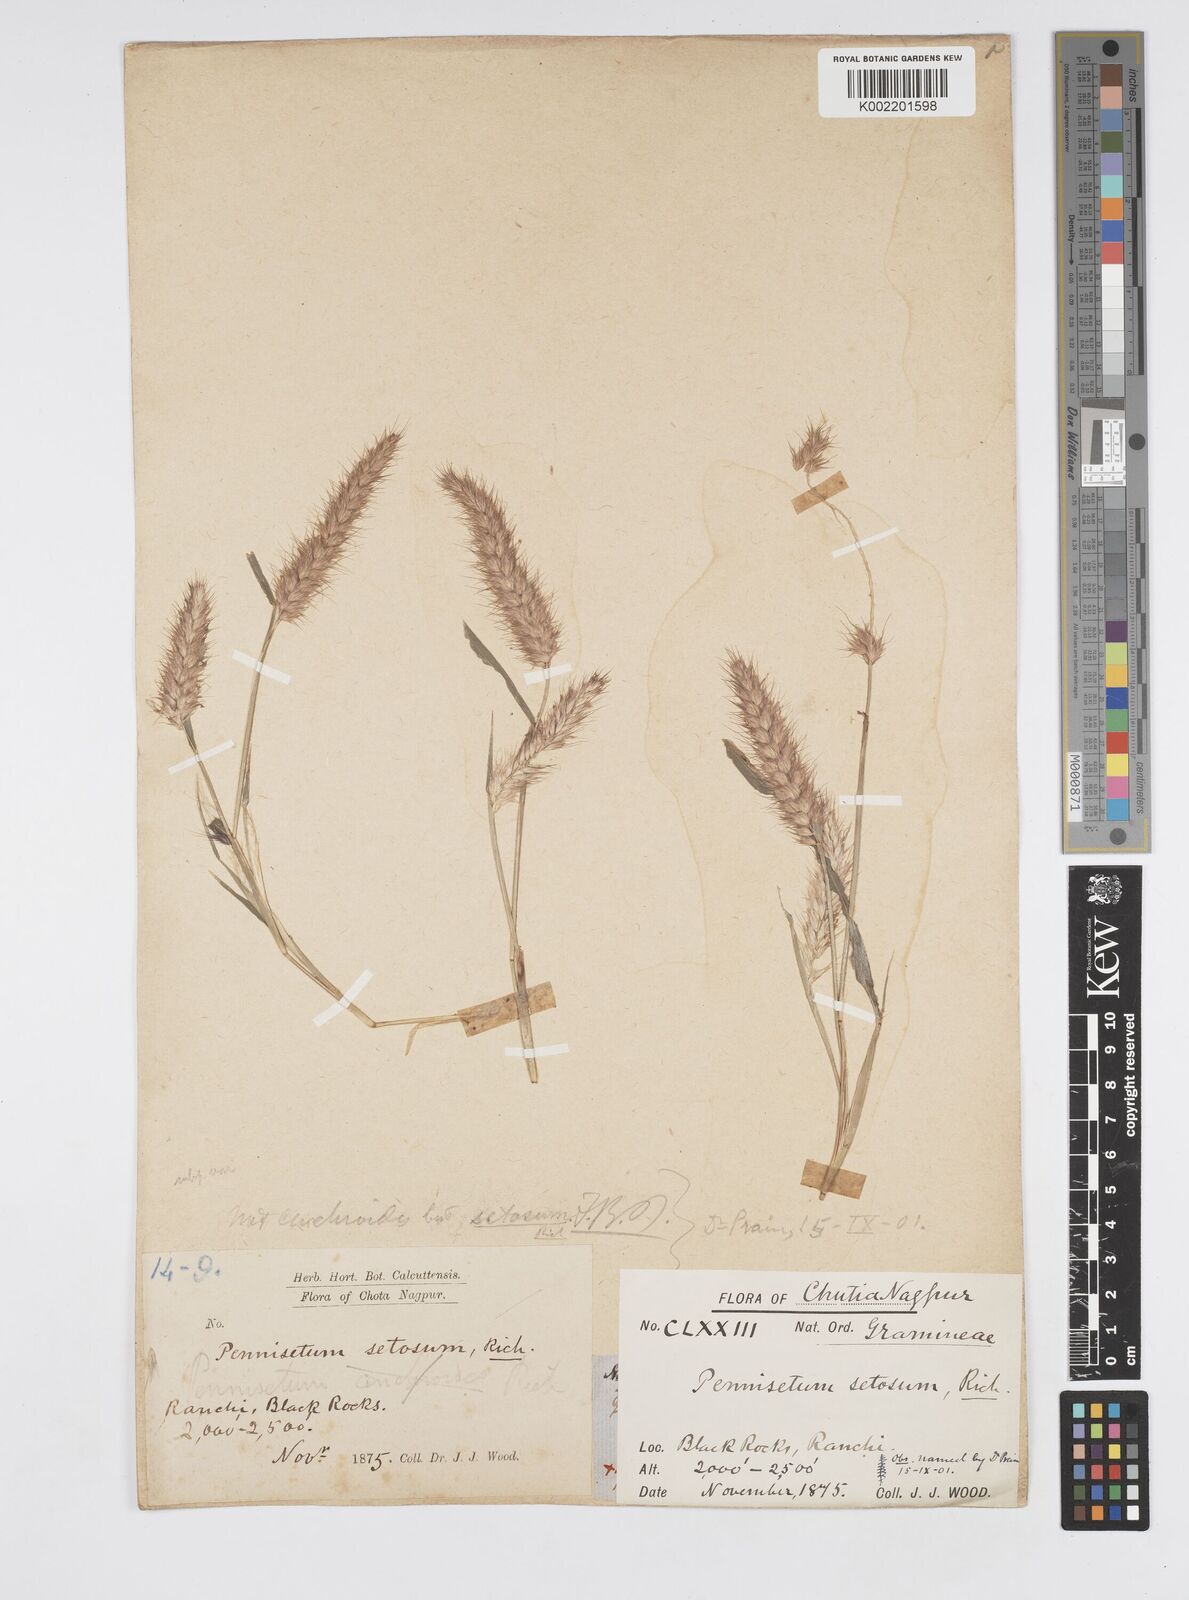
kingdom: Plantae
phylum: Tracheophyta
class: Liliopsida
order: Poales
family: Poaceae
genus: Cenchrus
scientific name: Cenchrus pedicellatus
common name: Hairy fountain grass
